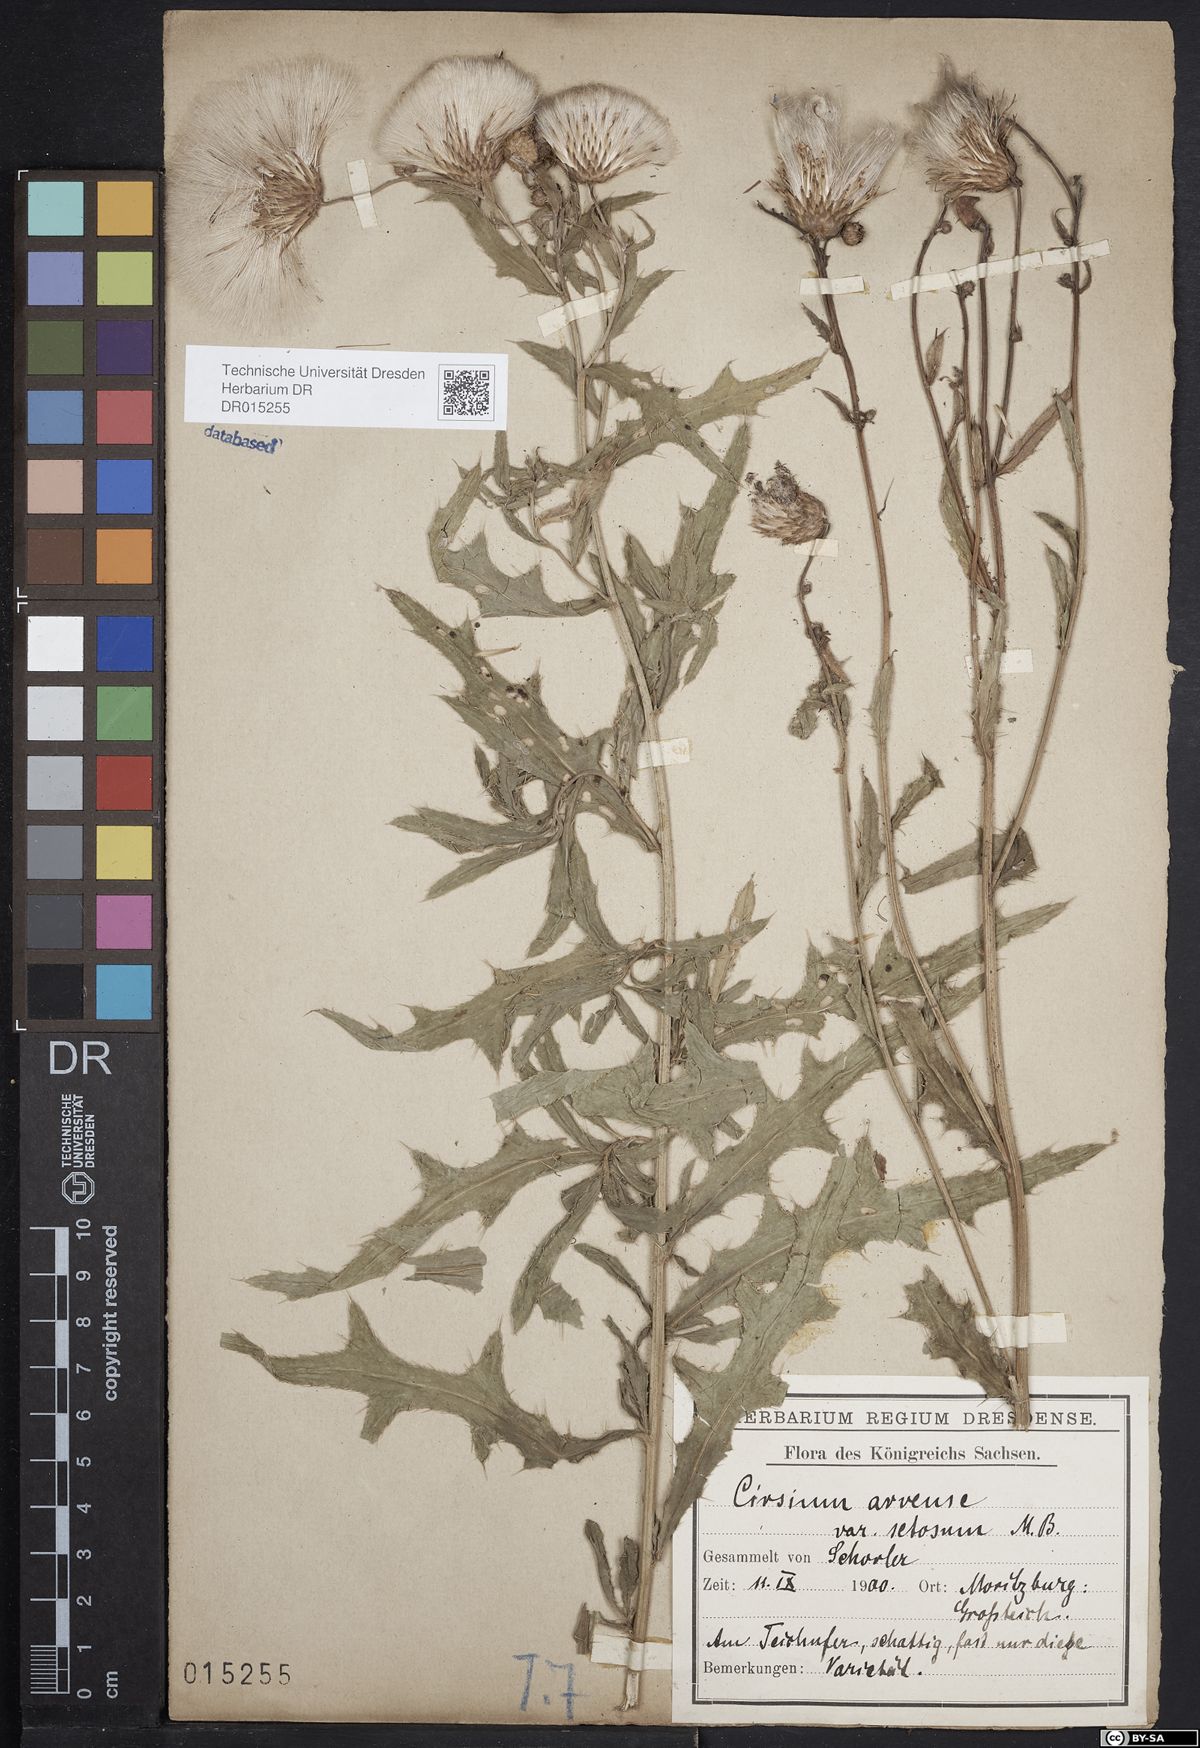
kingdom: Plantae
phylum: Tracheophyta
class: Magnoliopsida
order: Asterales
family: Asteraceae
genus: Cirsium
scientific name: Cirsium arvense
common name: Creeping thistle
